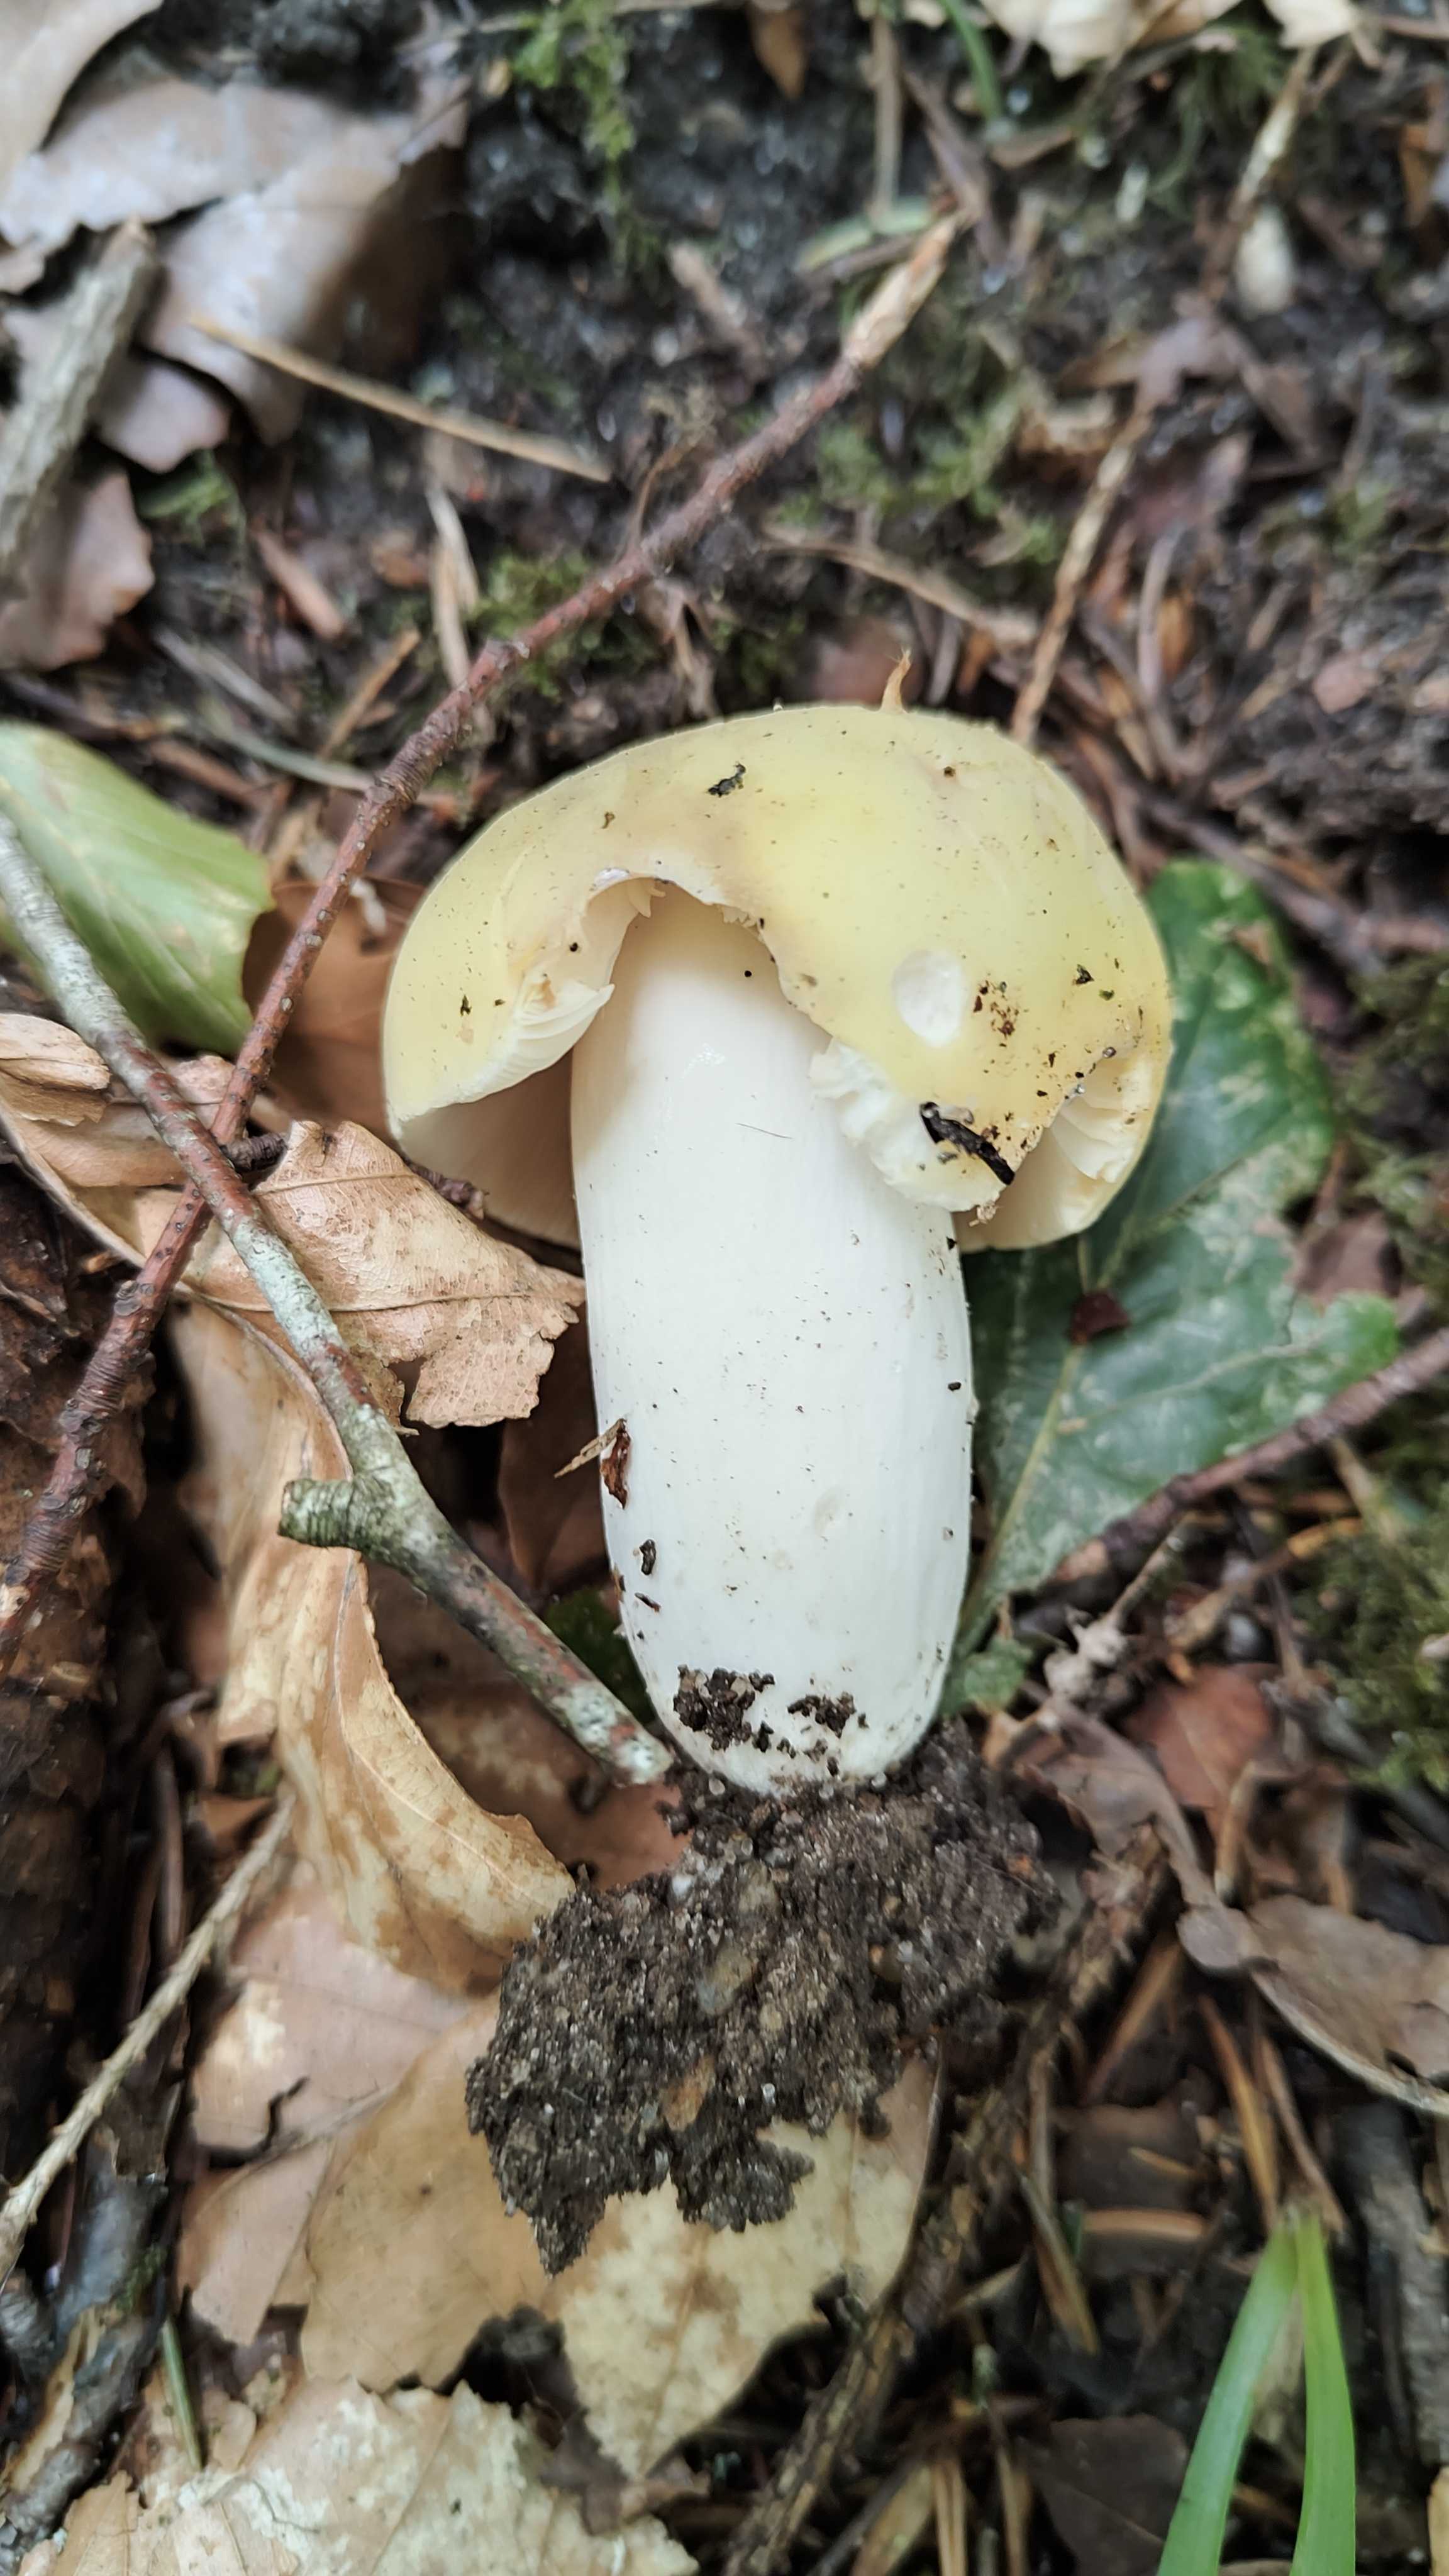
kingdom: Fungi
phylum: Basidiomycota
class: Agaricomycetes
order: Russulales
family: Russulaceae
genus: Russula
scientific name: Russula violeipes
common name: ferskengul skørhat
